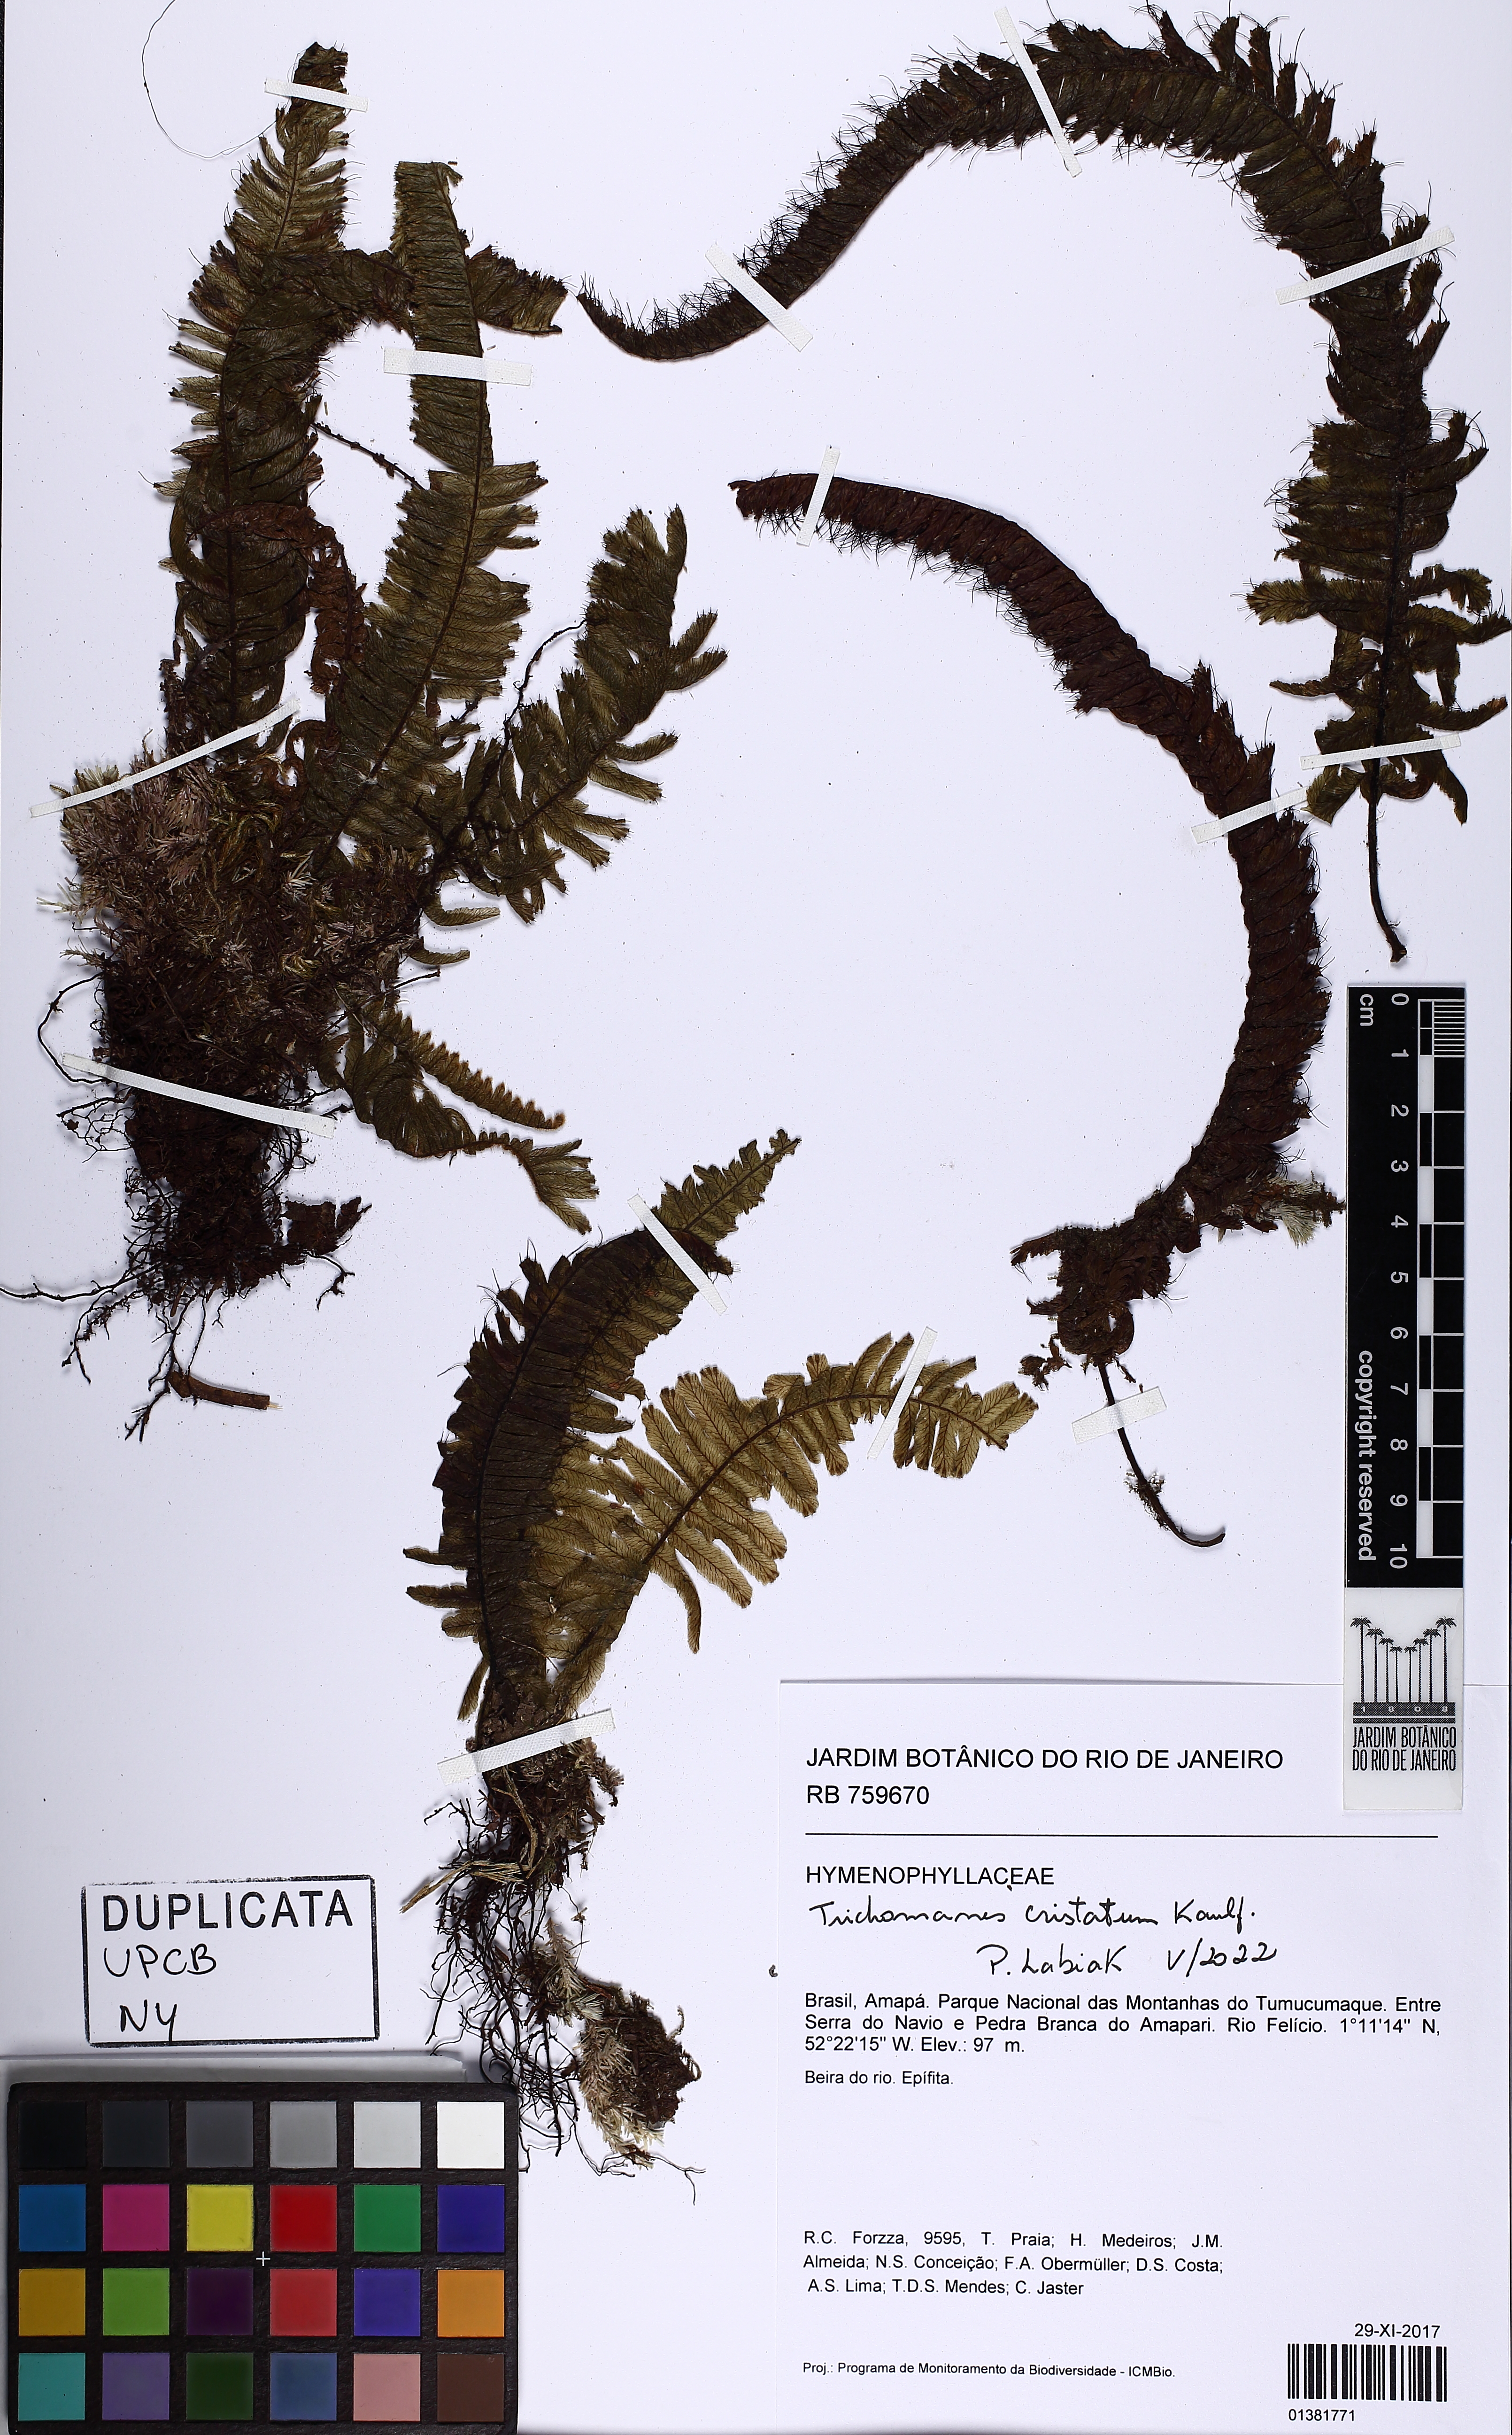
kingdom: Plantae
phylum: Tracheophyta
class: Polypodiopsida
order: Hymenophyllales
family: Hymenophyllaceae
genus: Trichomanes
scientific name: Trichomanes cristatum
